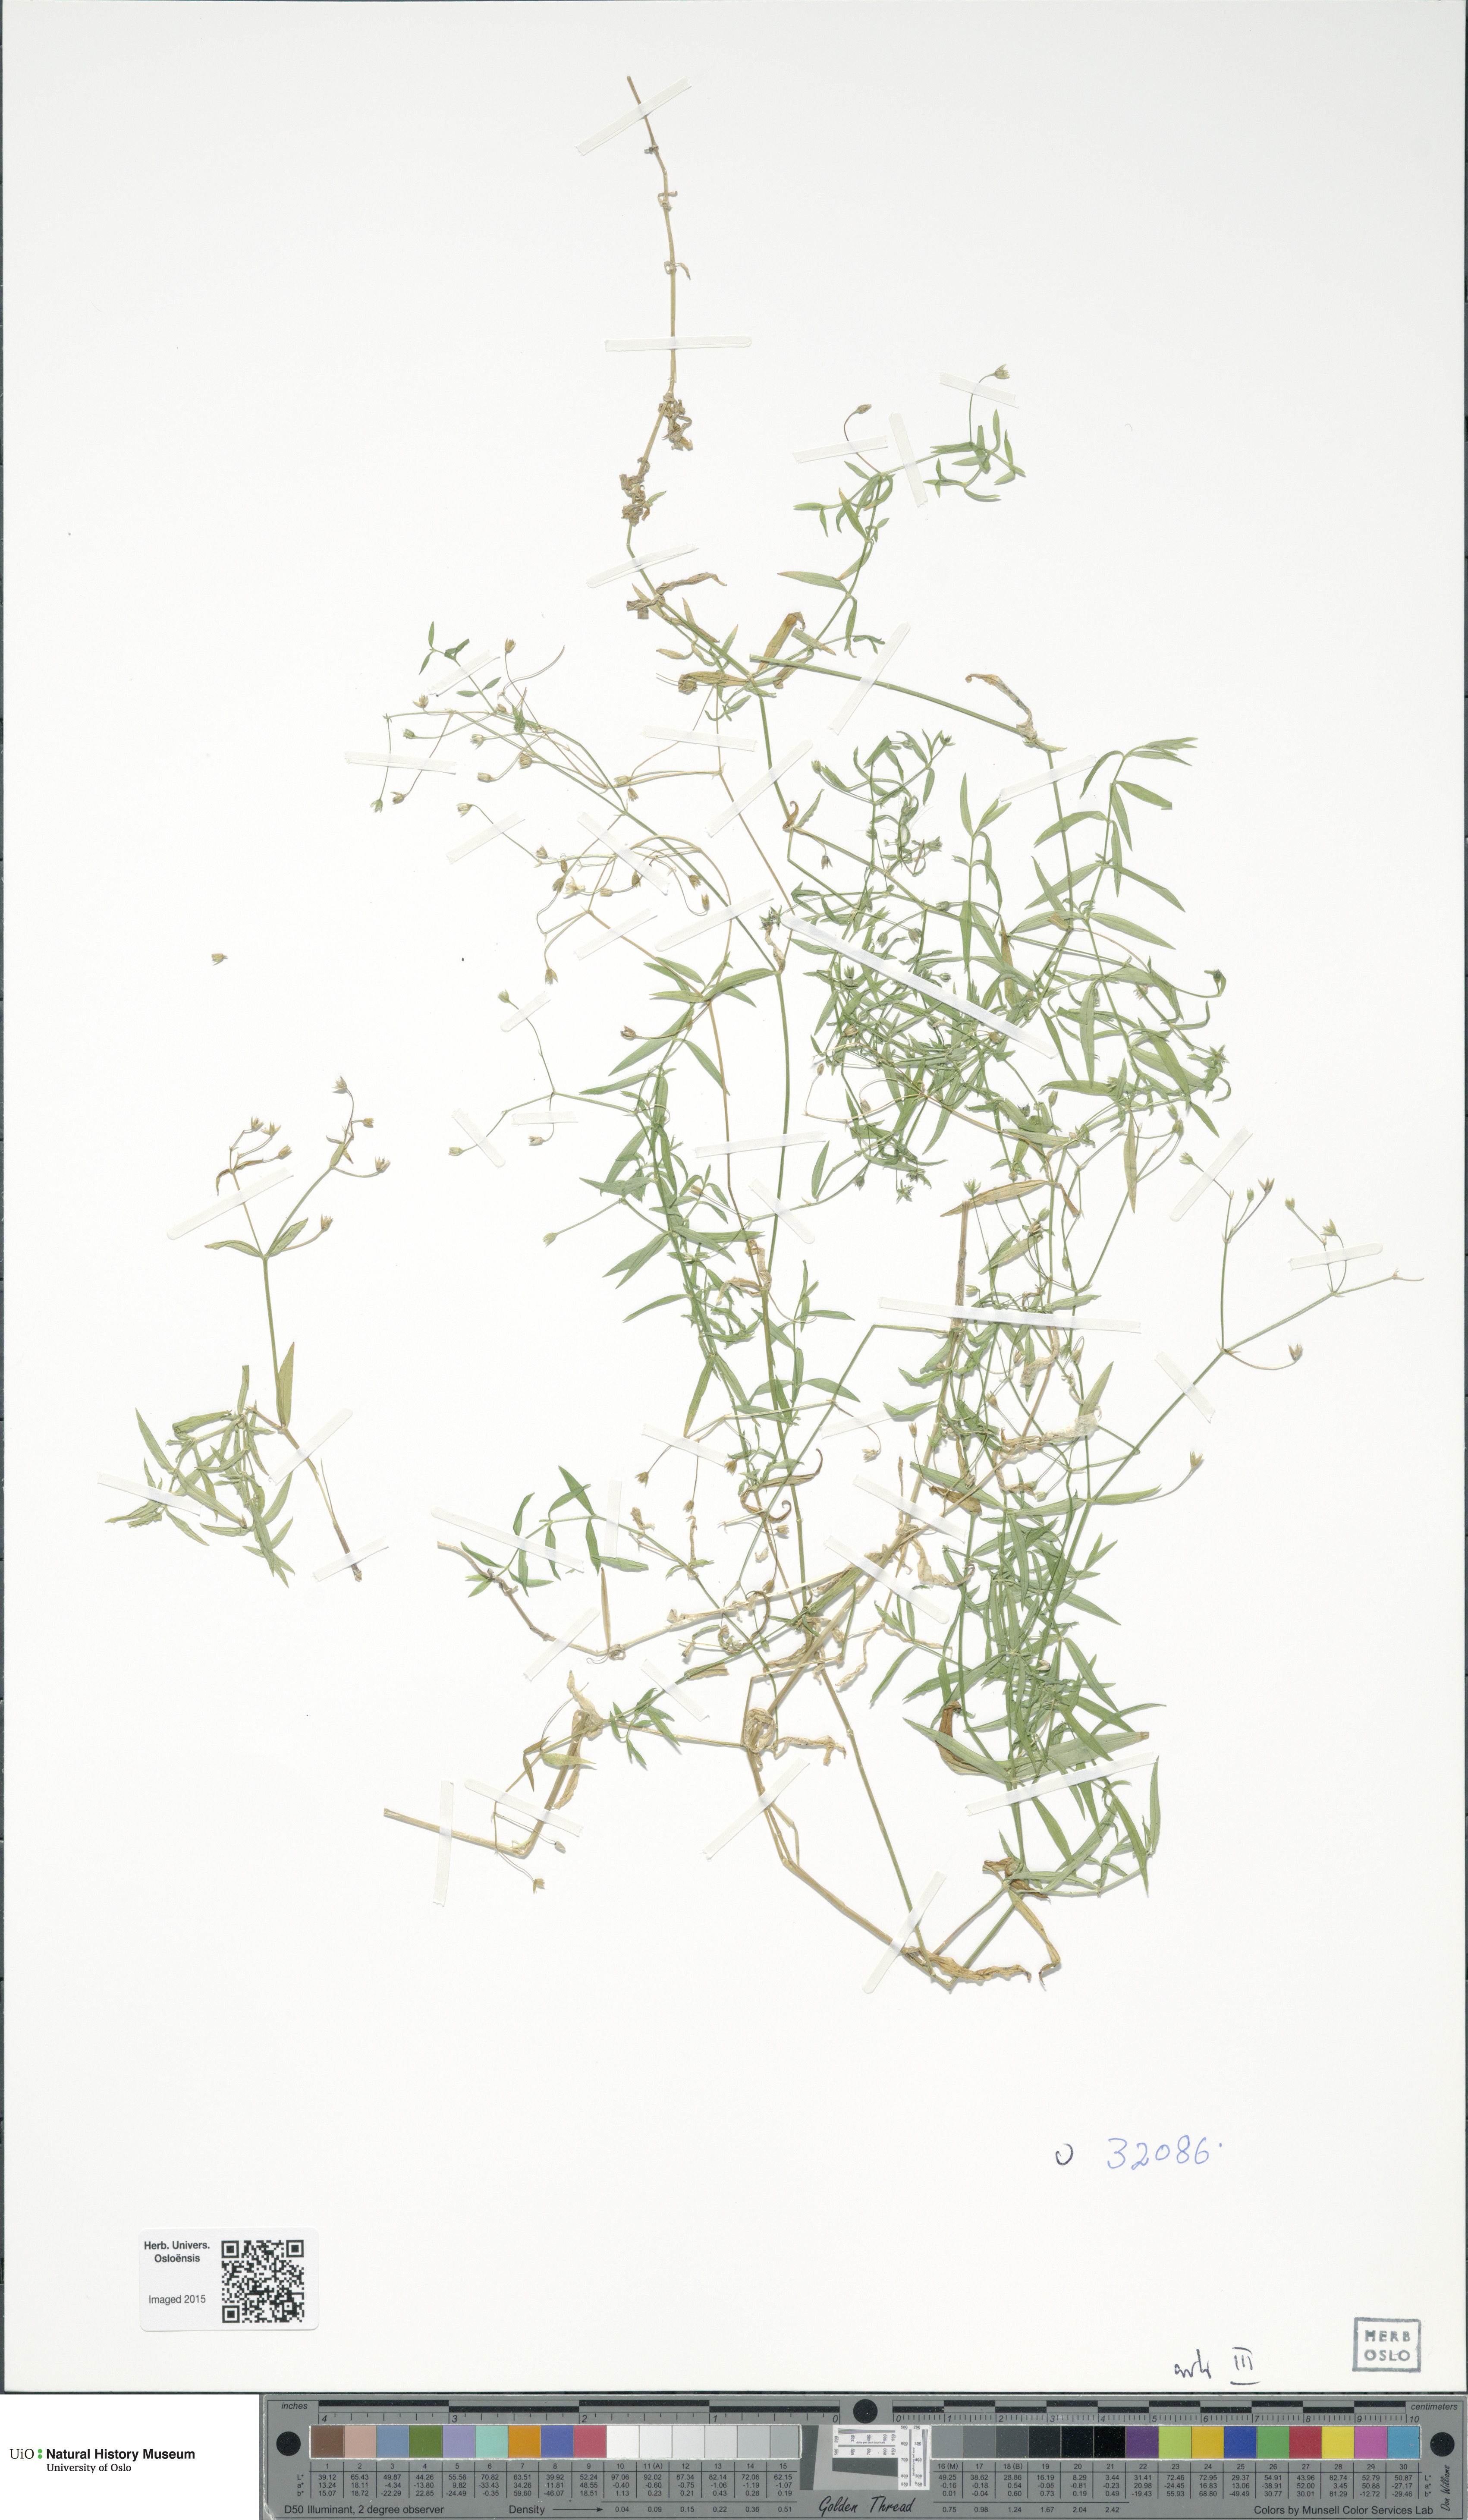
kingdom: Plantae
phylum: Tracheophyta
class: Magnoliopsida
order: Caryophyllales
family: Caryophyllaceae
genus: Stellaria
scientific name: Stellaria
